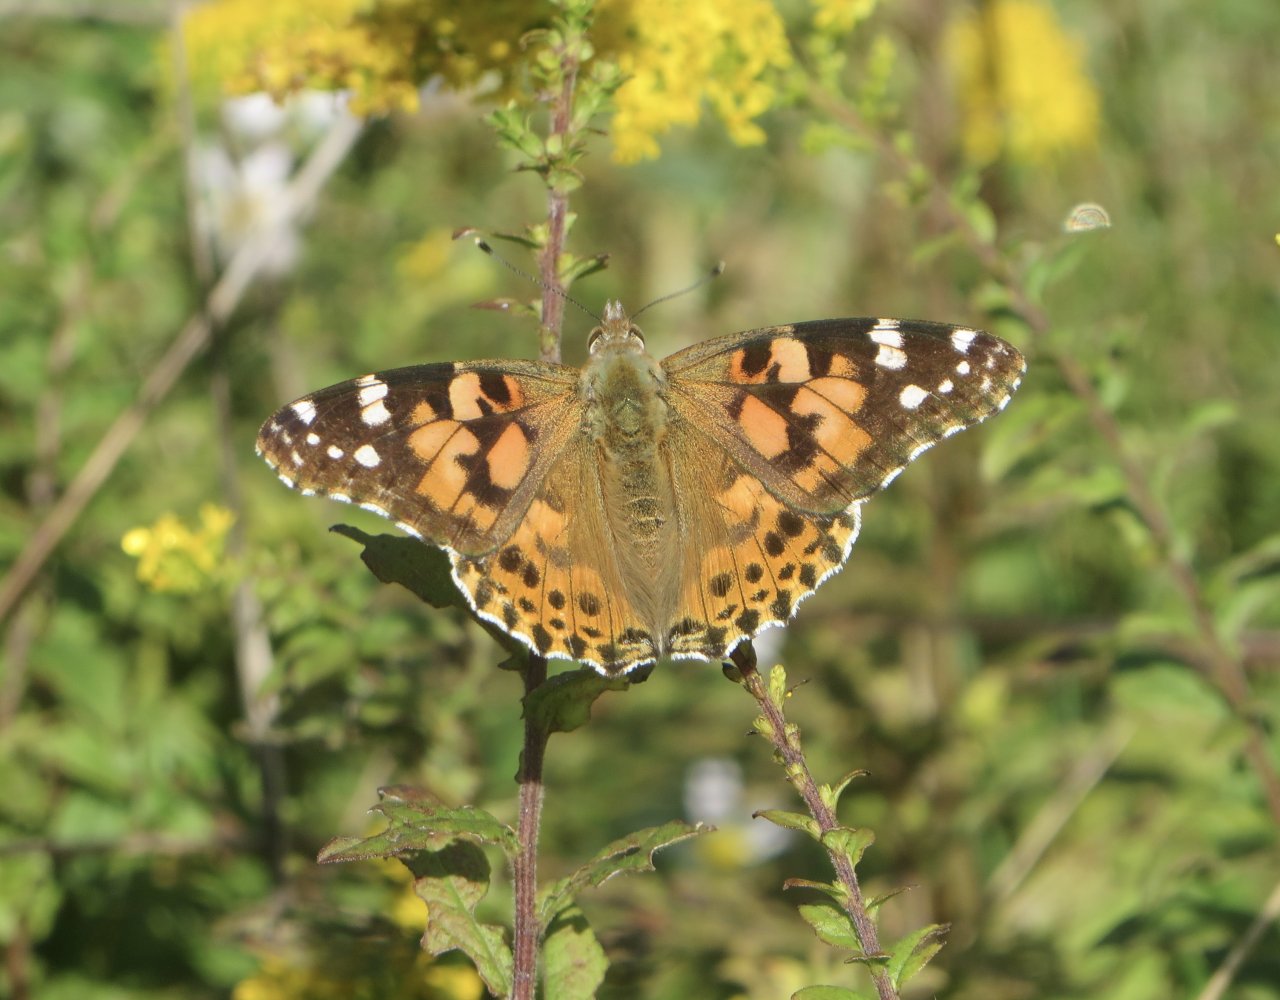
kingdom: Animalia
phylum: Arthropoda
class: Insecta
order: Lepidoptera
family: Nymphalidae
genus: Vanessa
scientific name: Vanessa cardui
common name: Painted Lady
